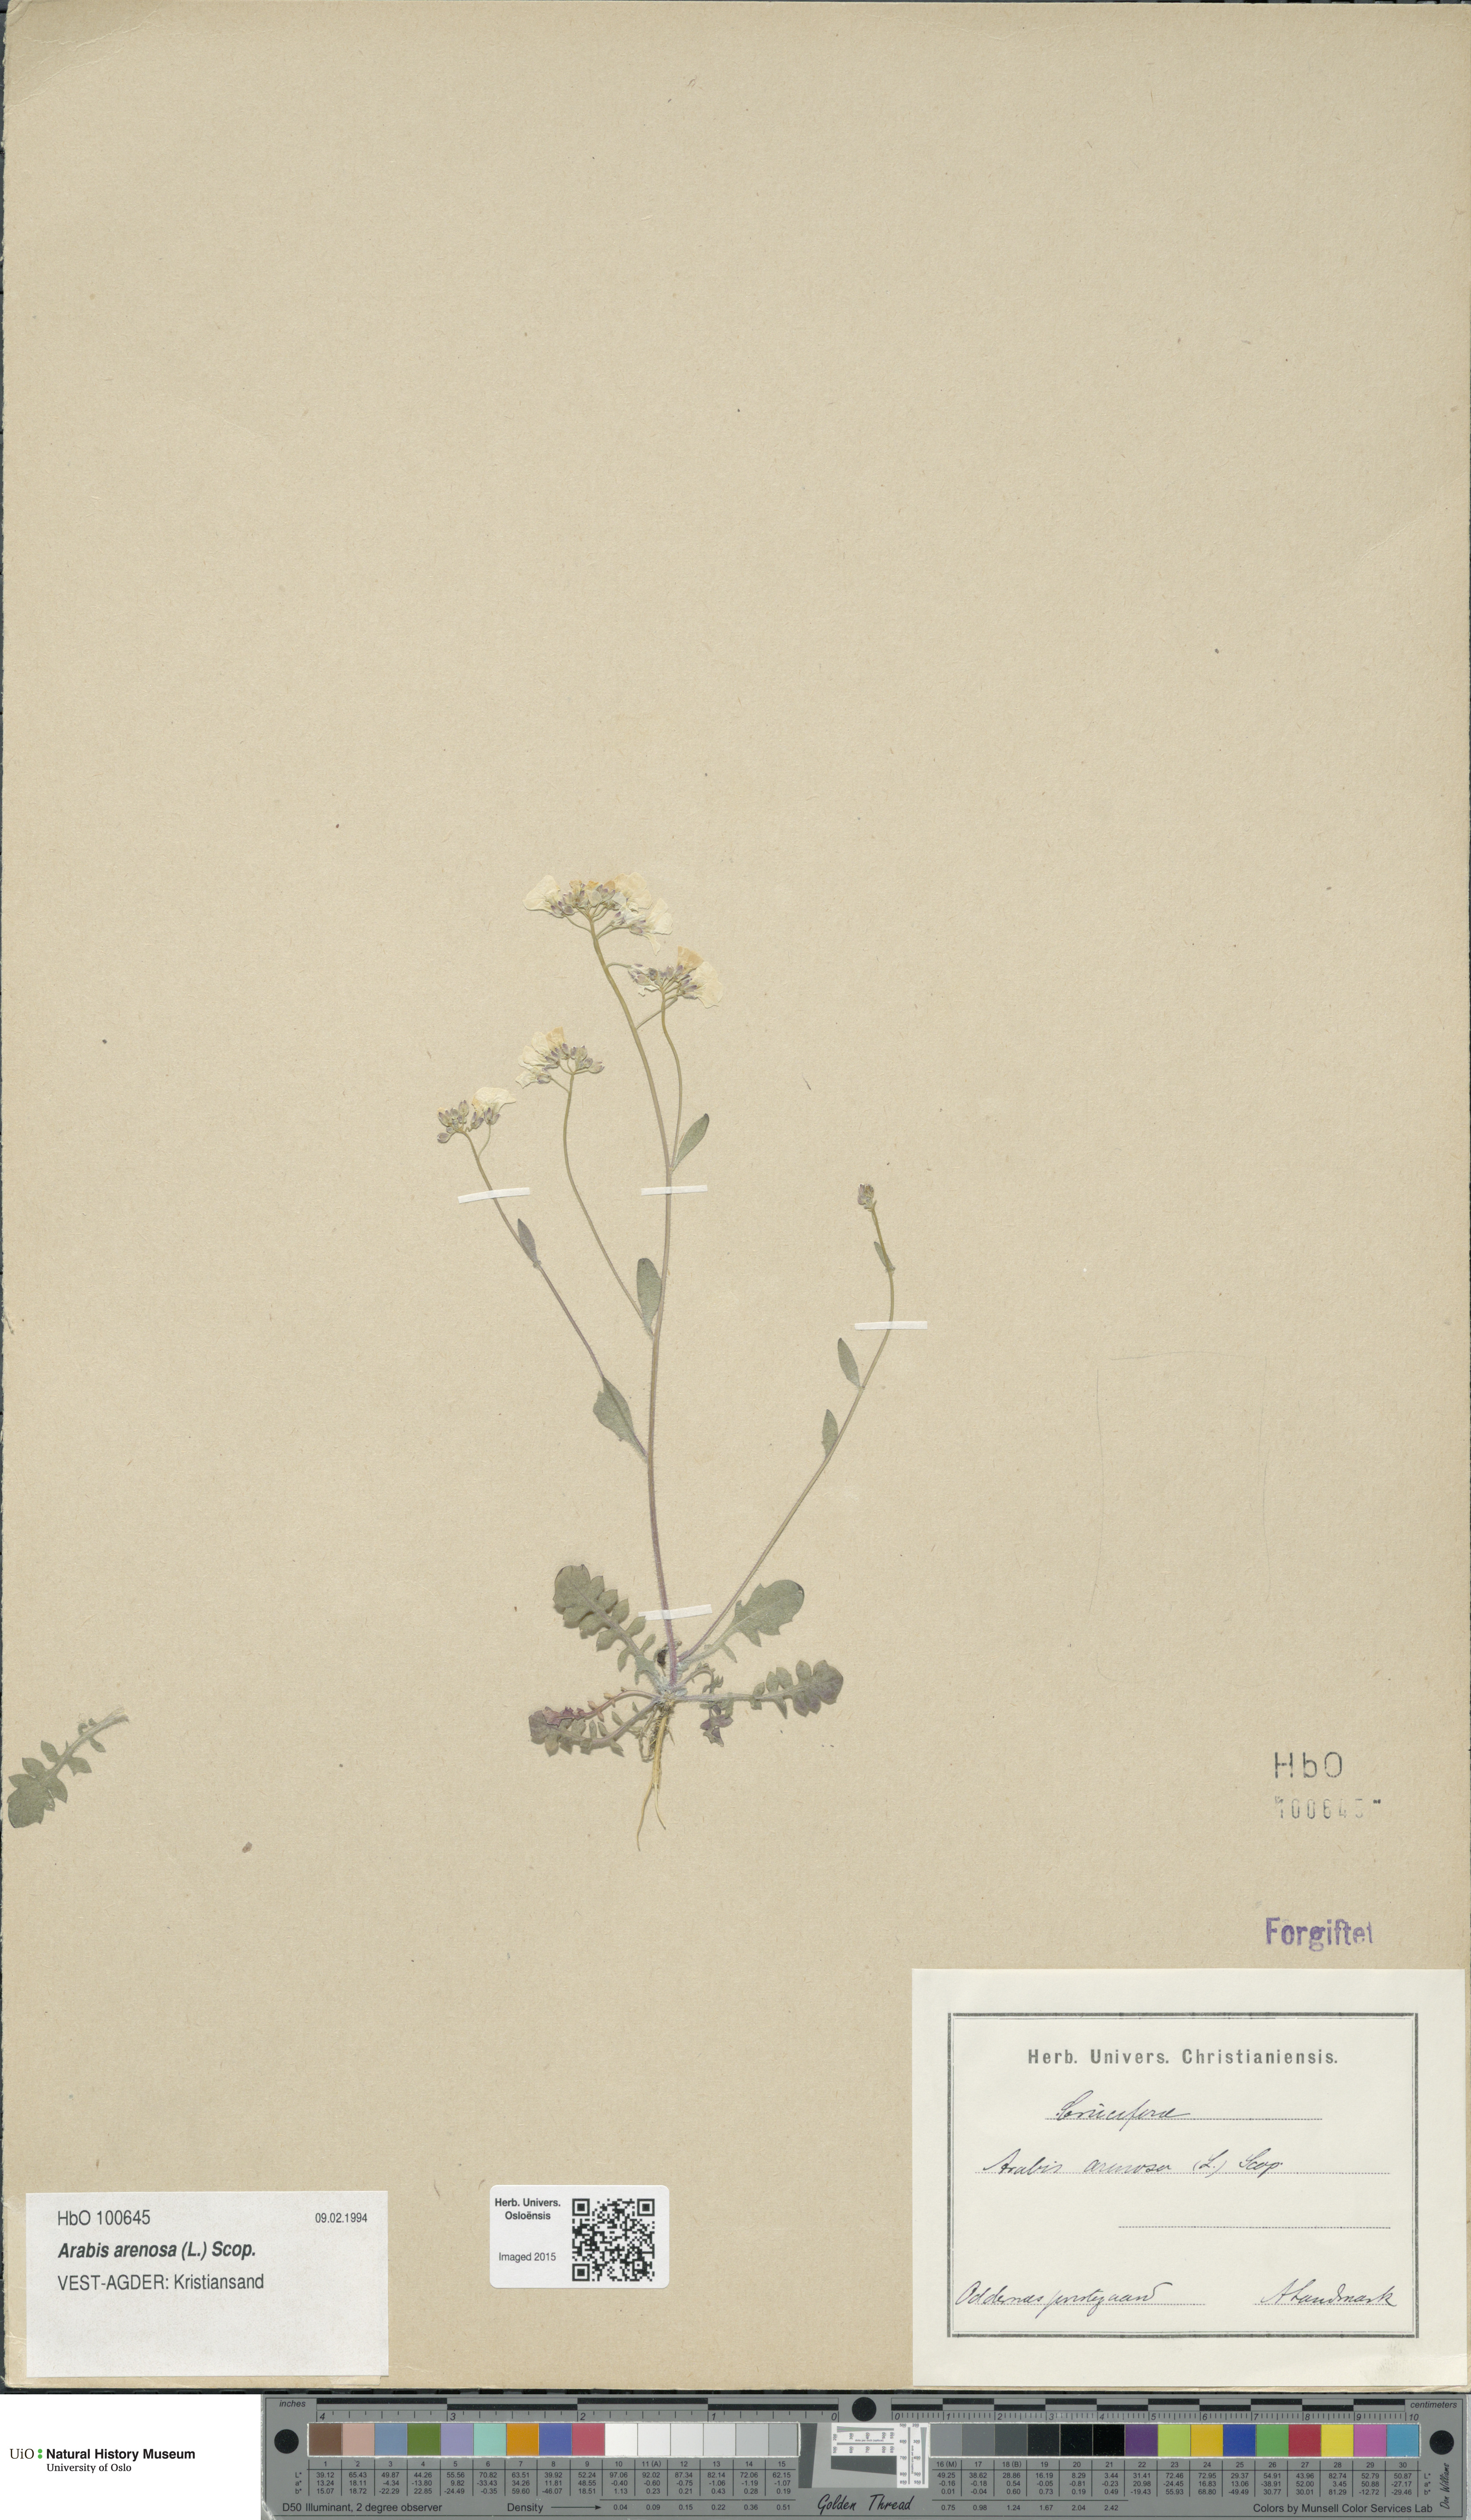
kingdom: Plantae
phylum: Tracheophyta
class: Magnoliopsida
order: Brassicales
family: Brassicaceae
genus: Arabidopsis
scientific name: Arabidopsis arenosa
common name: Sand rock-cress
